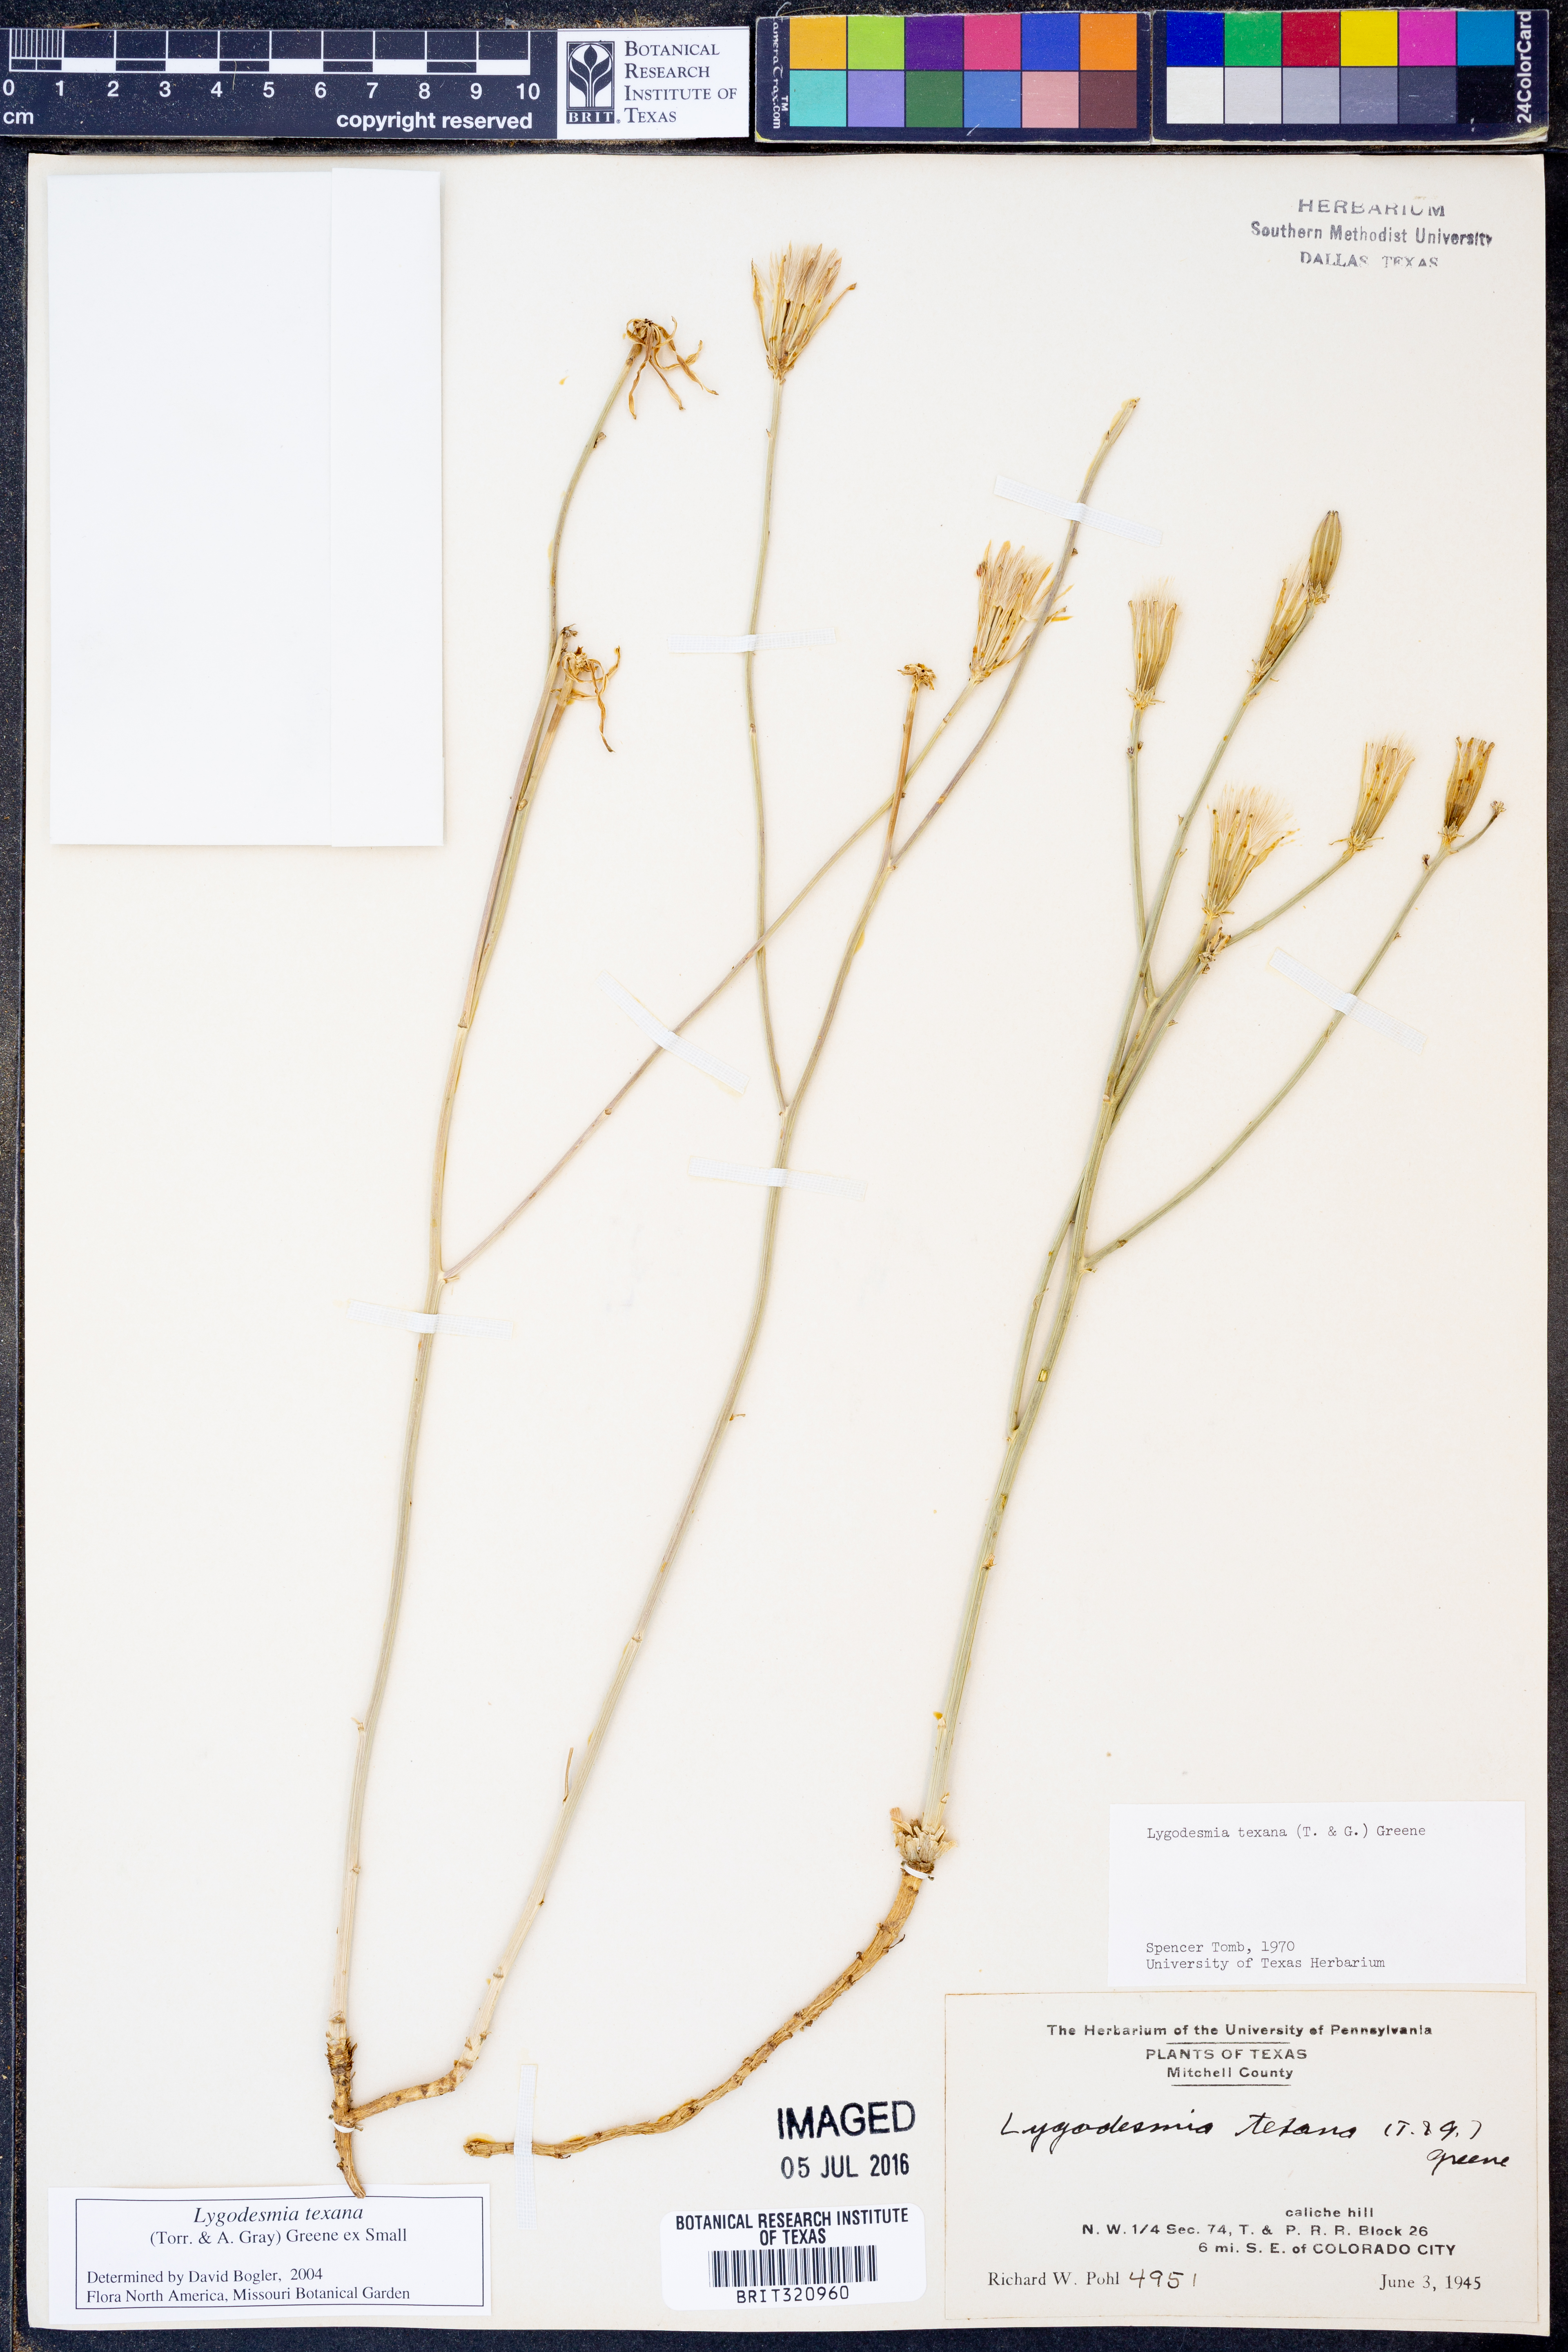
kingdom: Plantae
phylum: Tracheophyta
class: Magnoliopsida
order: Asterales
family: Asteraceae
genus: Lygodesmia
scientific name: Lygodesmia texana
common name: Texas skeleton-plant
